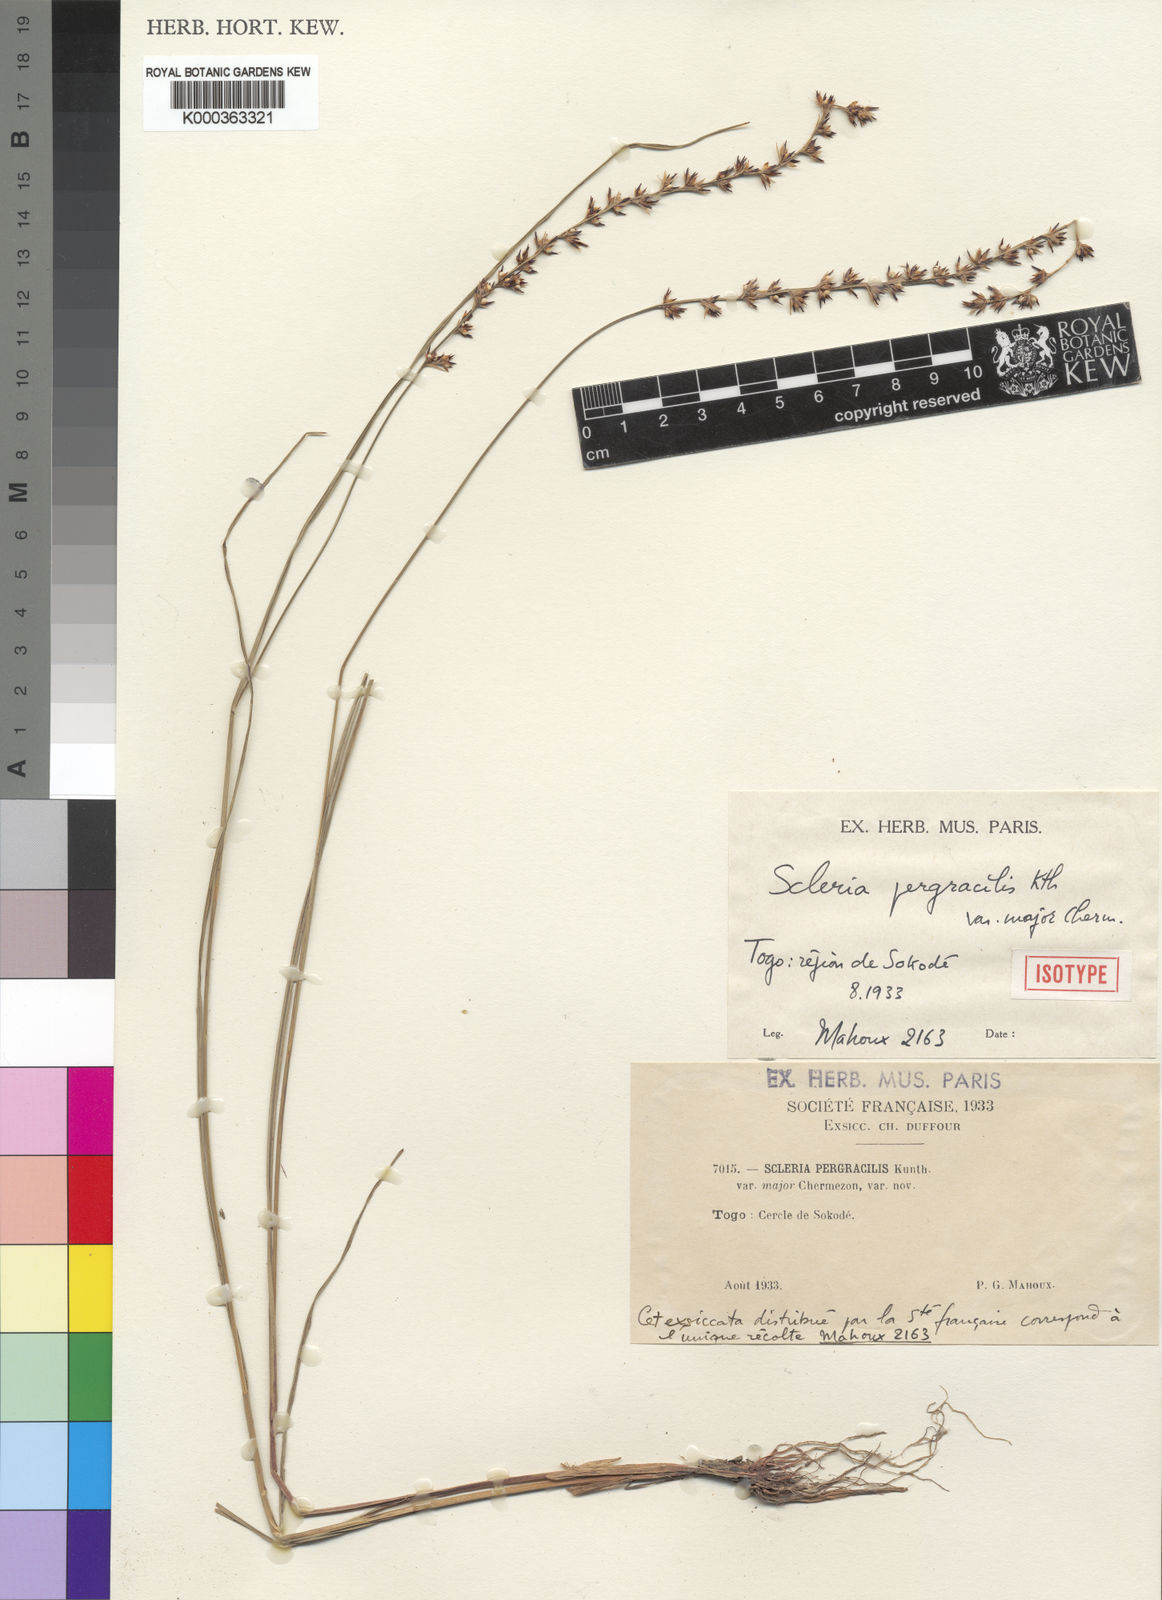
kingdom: Plantae
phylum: Tracheophyta
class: Liliopsida
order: Poales
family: Cyperaceae
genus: Scleria
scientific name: Scleria pergracilis
